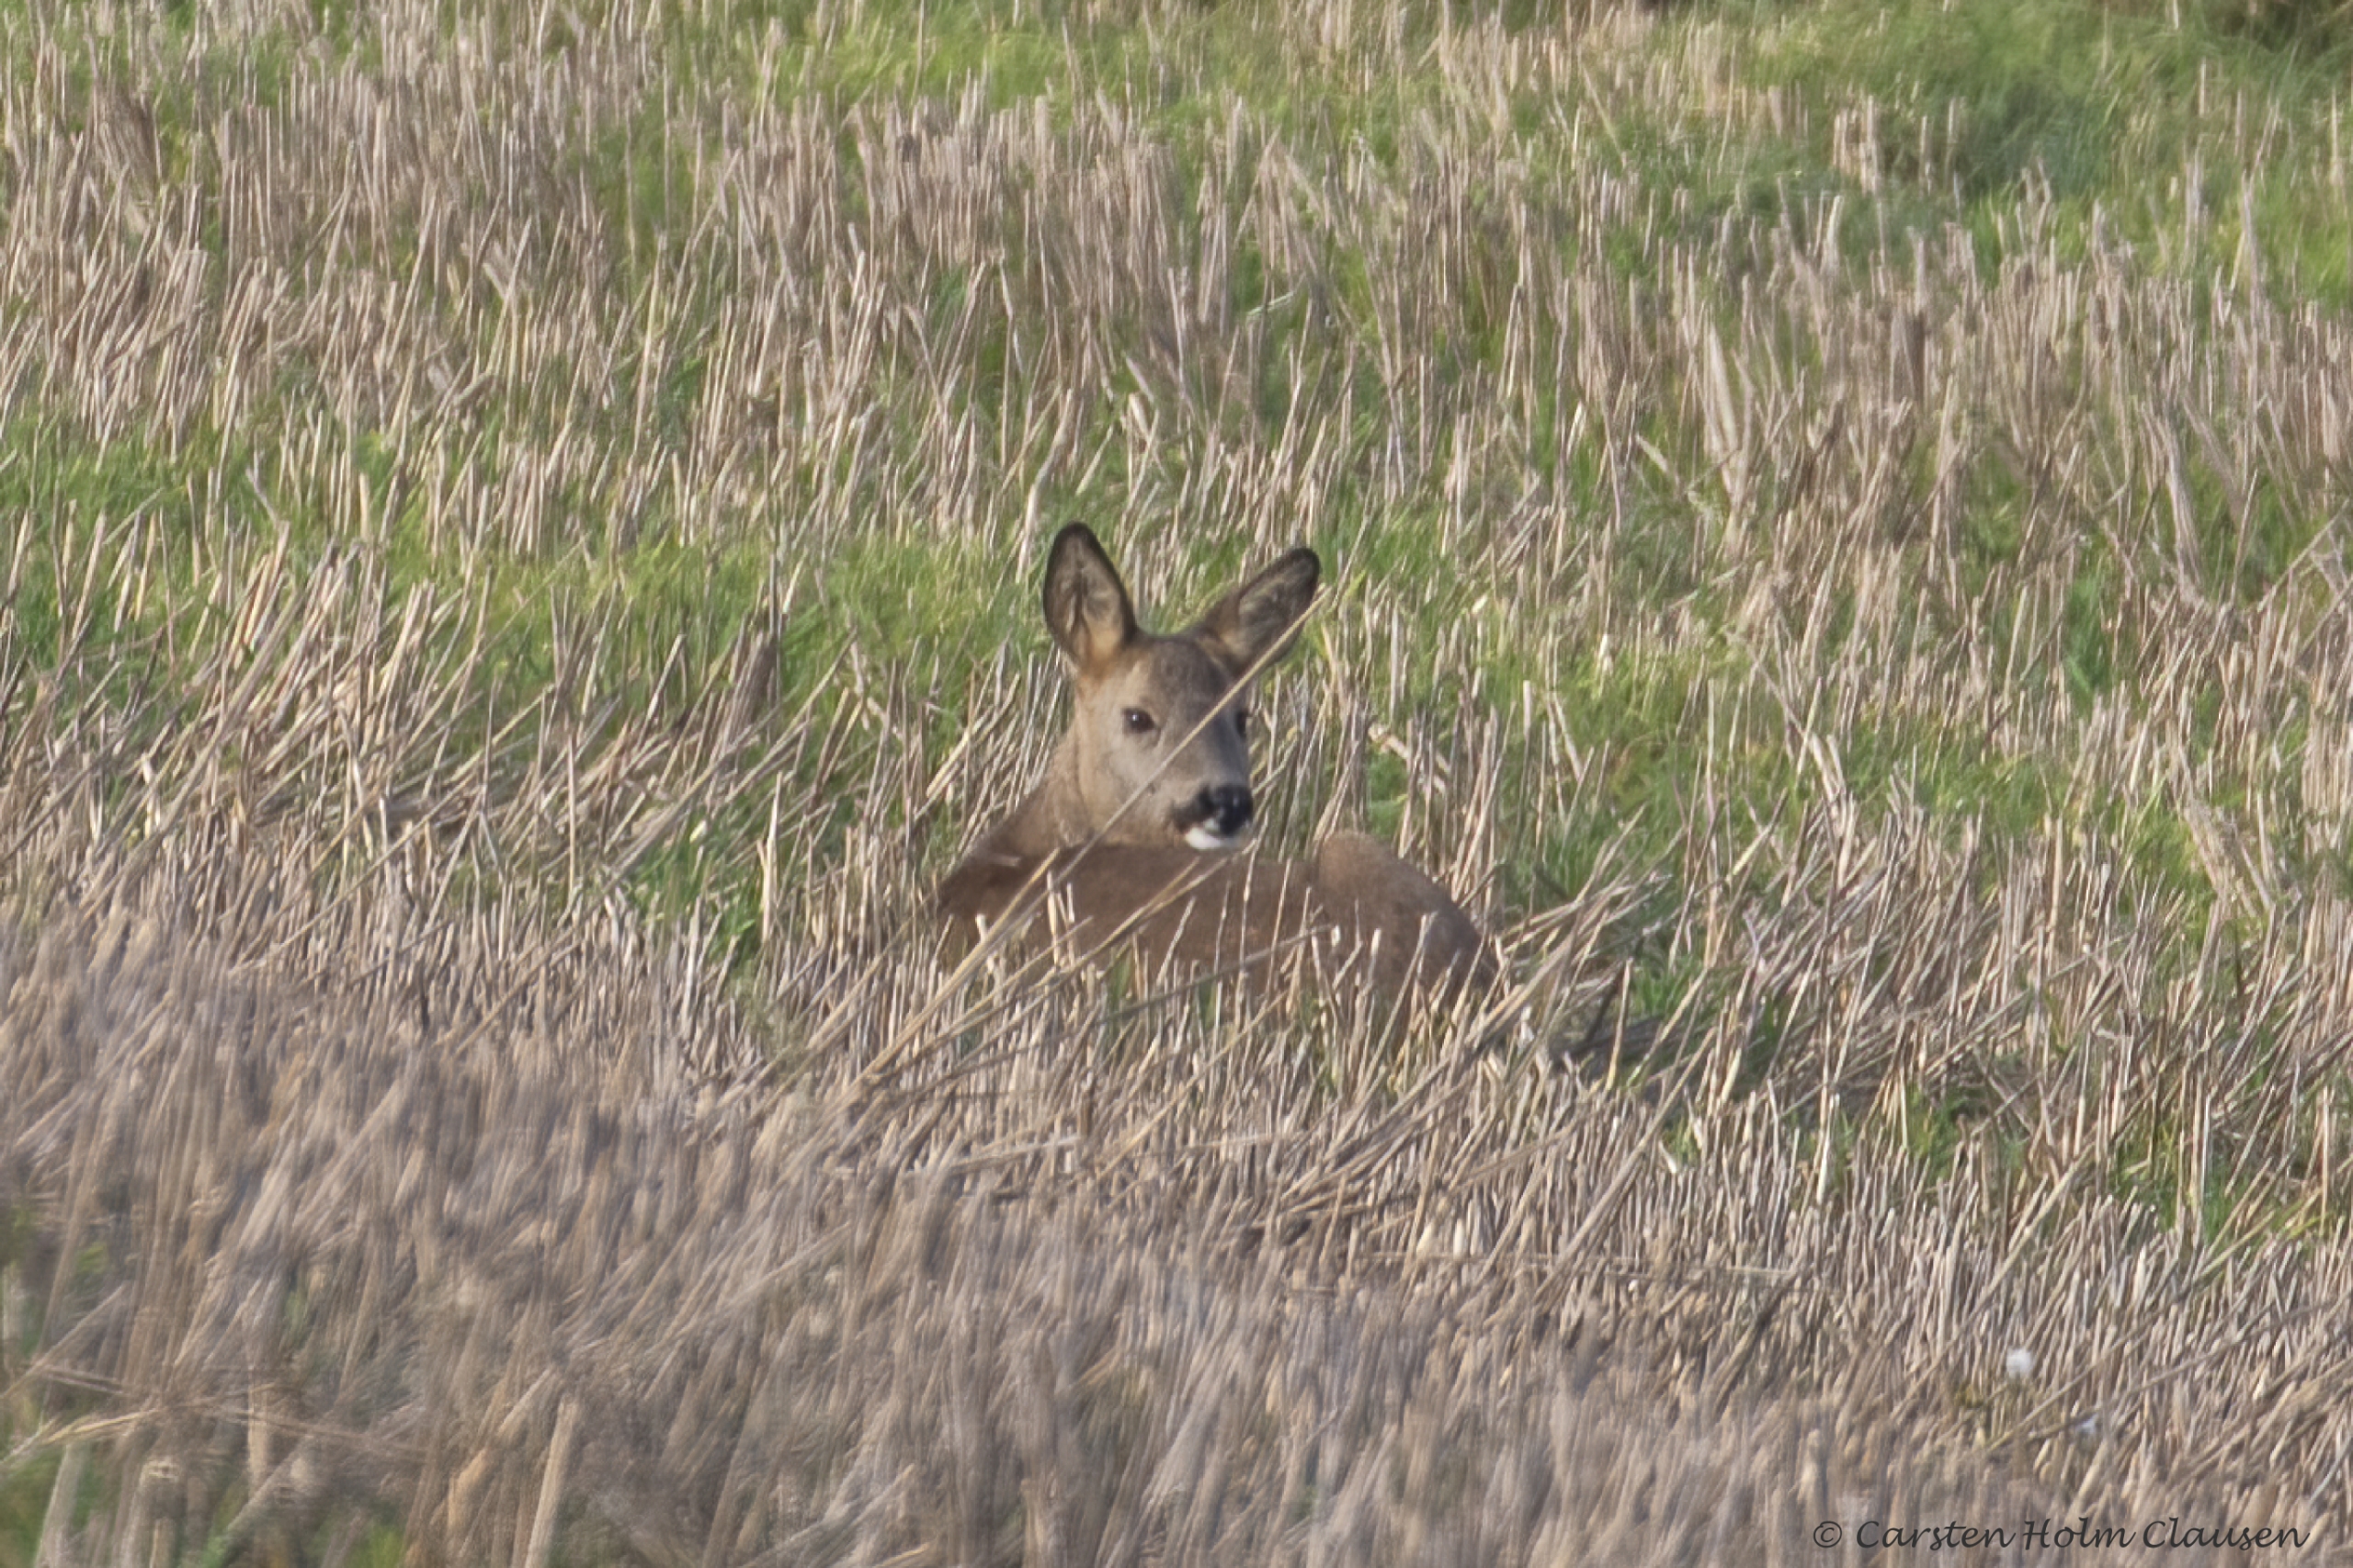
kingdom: Animalia
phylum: Chordata
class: Mammalia
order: Artiodactyla
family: Cervidae
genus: Capreolus
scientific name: Capreolus capreolus
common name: Rådyr
